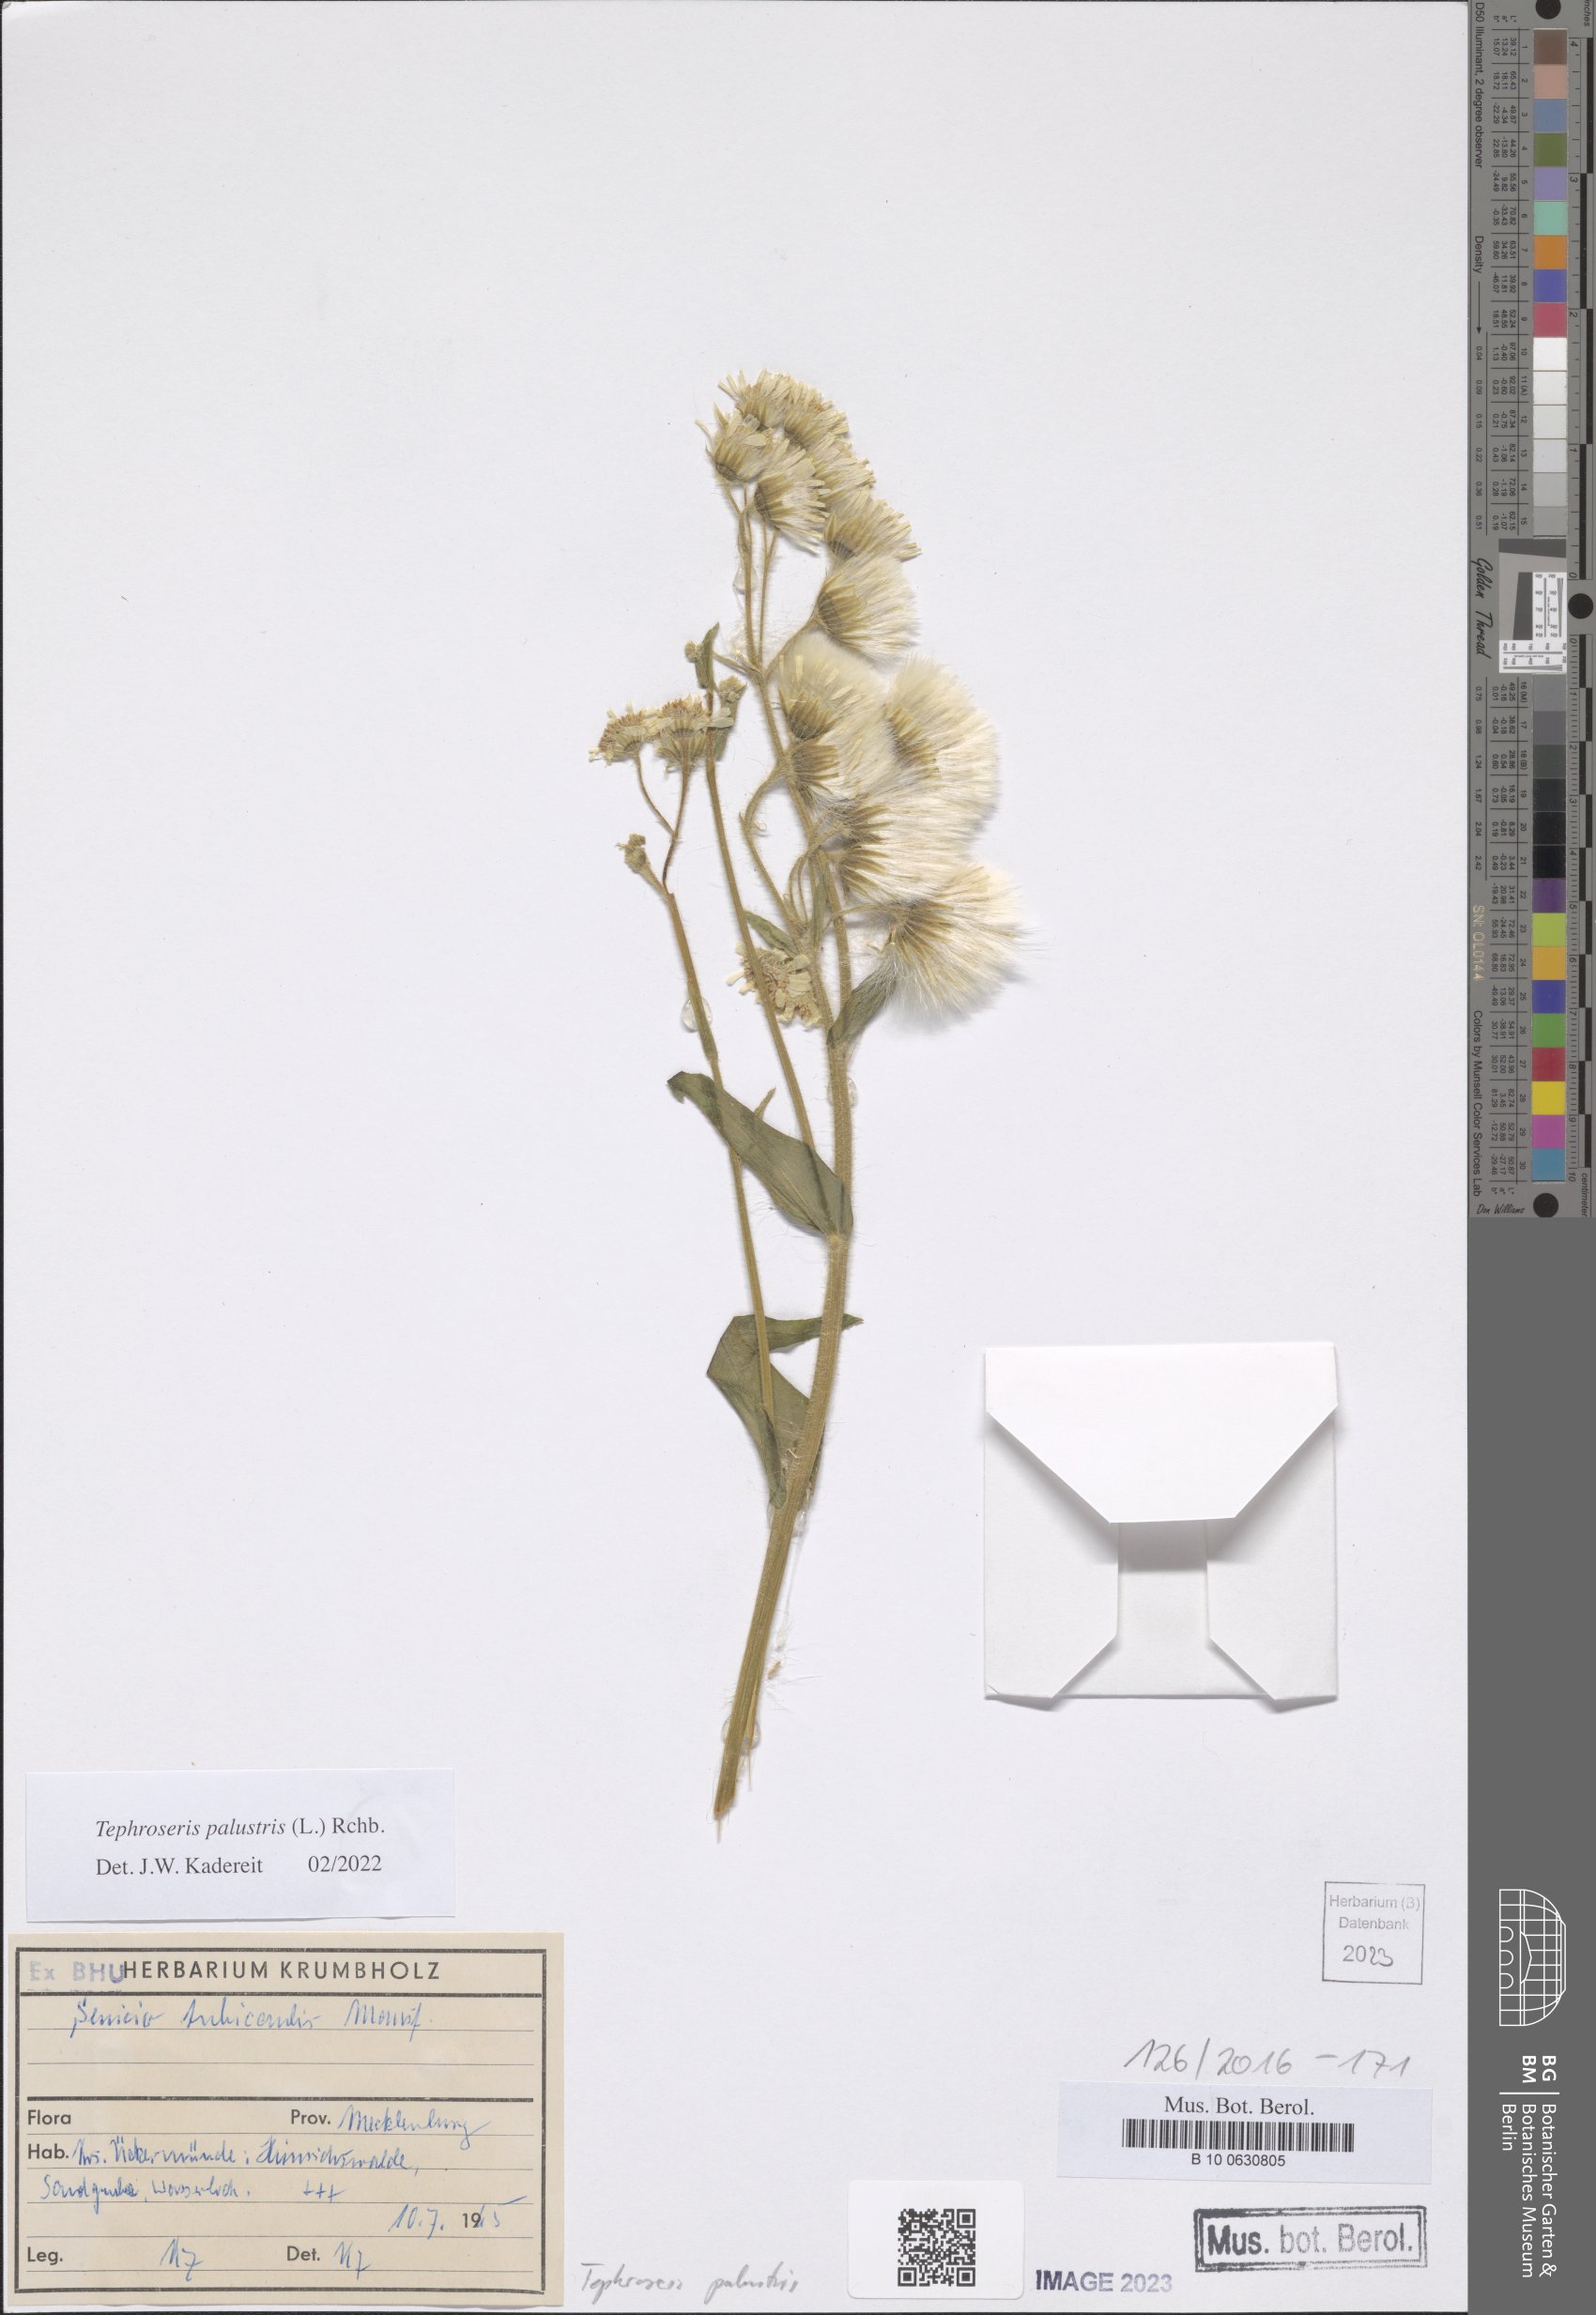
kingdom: Plantae
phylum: Tracheophyta
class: Magnoliopsida
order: Asterales
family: Asteraceae
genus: Tephroseris
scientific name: Tephroseris palustris
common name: Marsh fleawort
